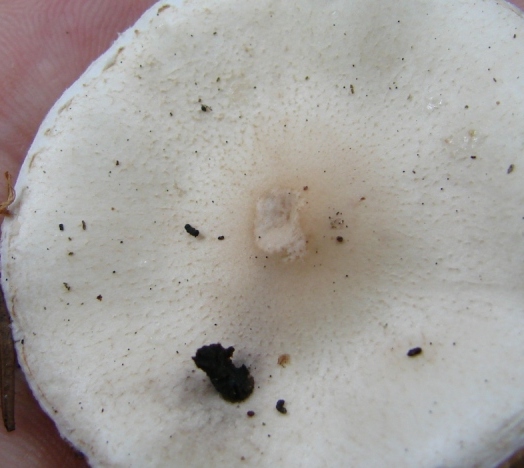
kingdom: Fungi
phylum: Basidiomycota
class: Agaricomycetes
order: Agaricales
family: Agaricaceae
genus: Macrolepiota
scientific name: Macrolepiota excoriata
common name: mark-kæmpeparasolhat
